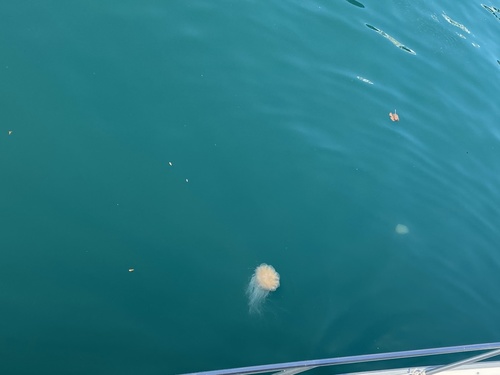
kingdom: Animalia
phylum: Cnidaria
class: Scyphozoa
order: Semaeostomeae
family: Cyaneidae
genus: Cyanea
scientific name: Cyanea nozakii
